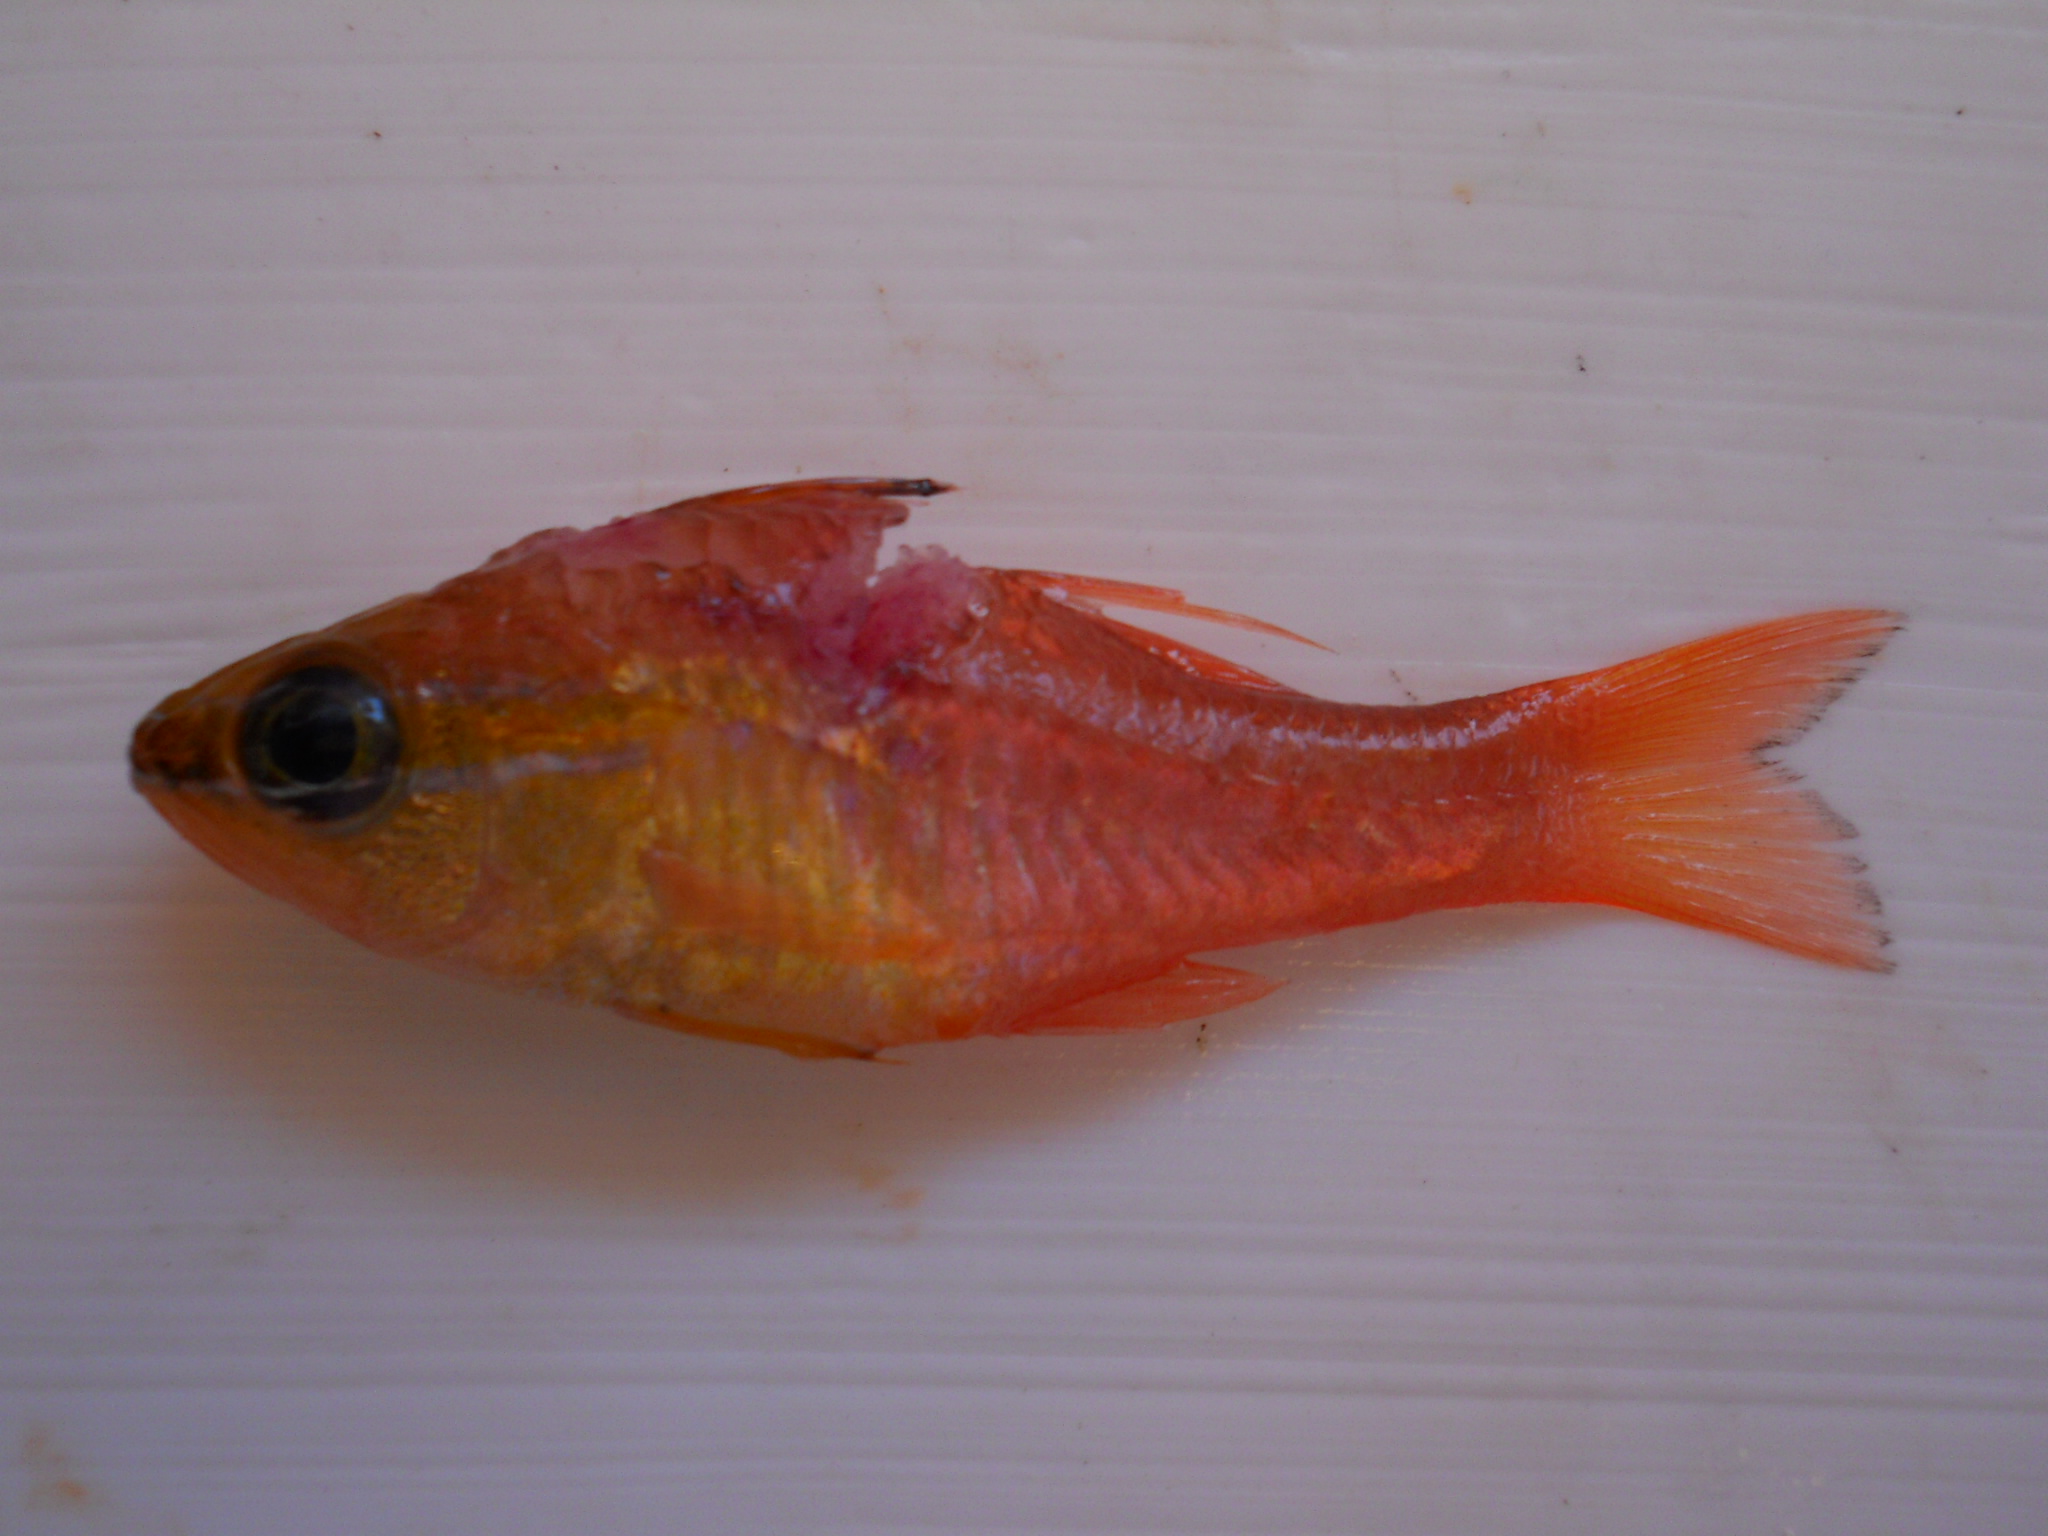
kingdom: Animalia
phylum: Chordata
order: Perciformes
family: Apogonidae
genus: Ostorhinchus
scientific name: Ostorhinchus apogonoides
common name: Goldbelly cardinalfish
